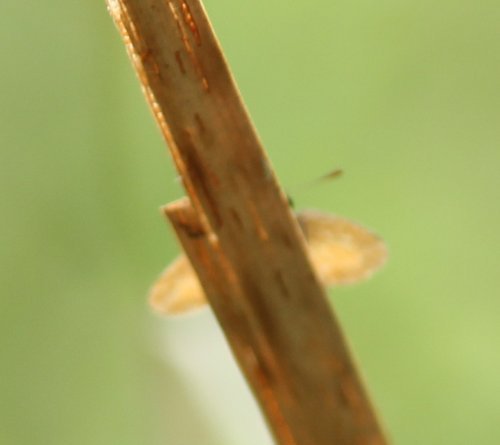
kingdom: Animalia
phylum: Arthropoda
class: Insecta
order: Lepidoptera
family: Hesperiidae
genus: Ancyloxypha
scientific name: Ancyloxypha numitor
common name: Least Skipper
